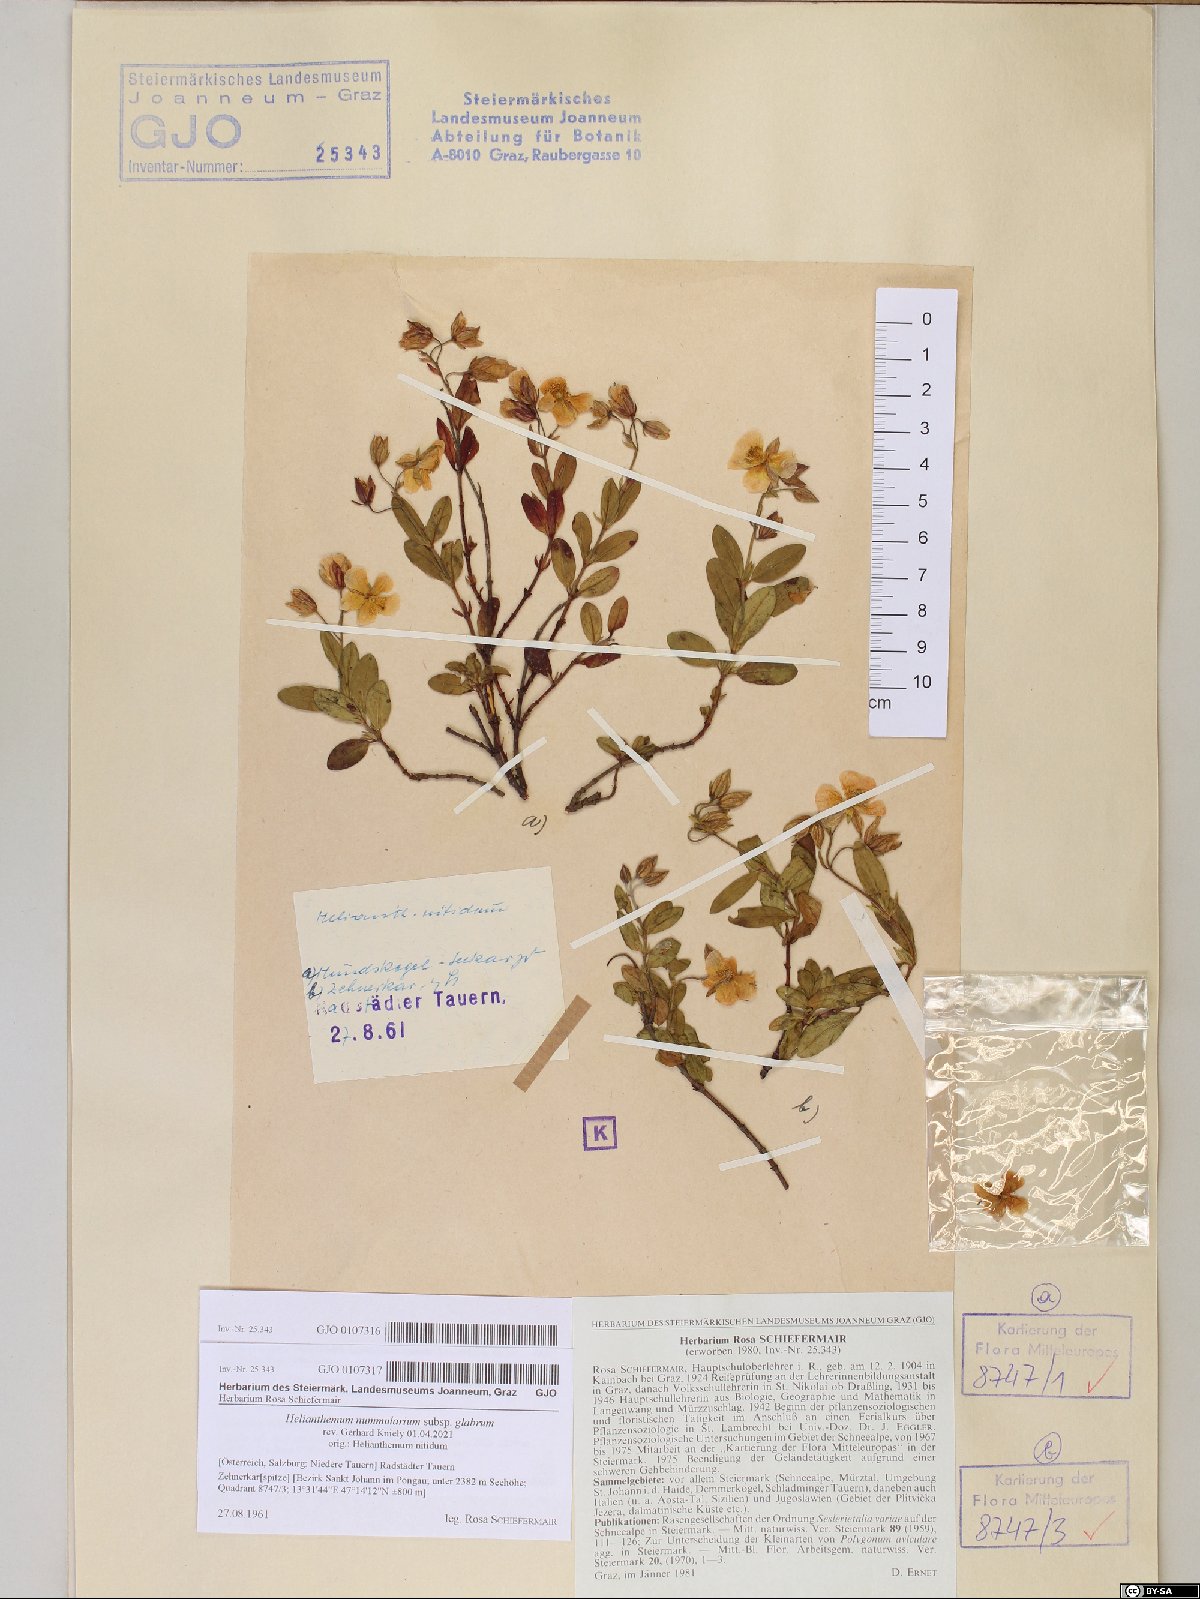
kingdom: Plantae
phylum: Tracheophyta
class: Magnoliopsida
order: Malvales
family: Cistaceae
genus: Helianthemum
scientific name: Helianthemum nummularium
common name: Common rock-rose
